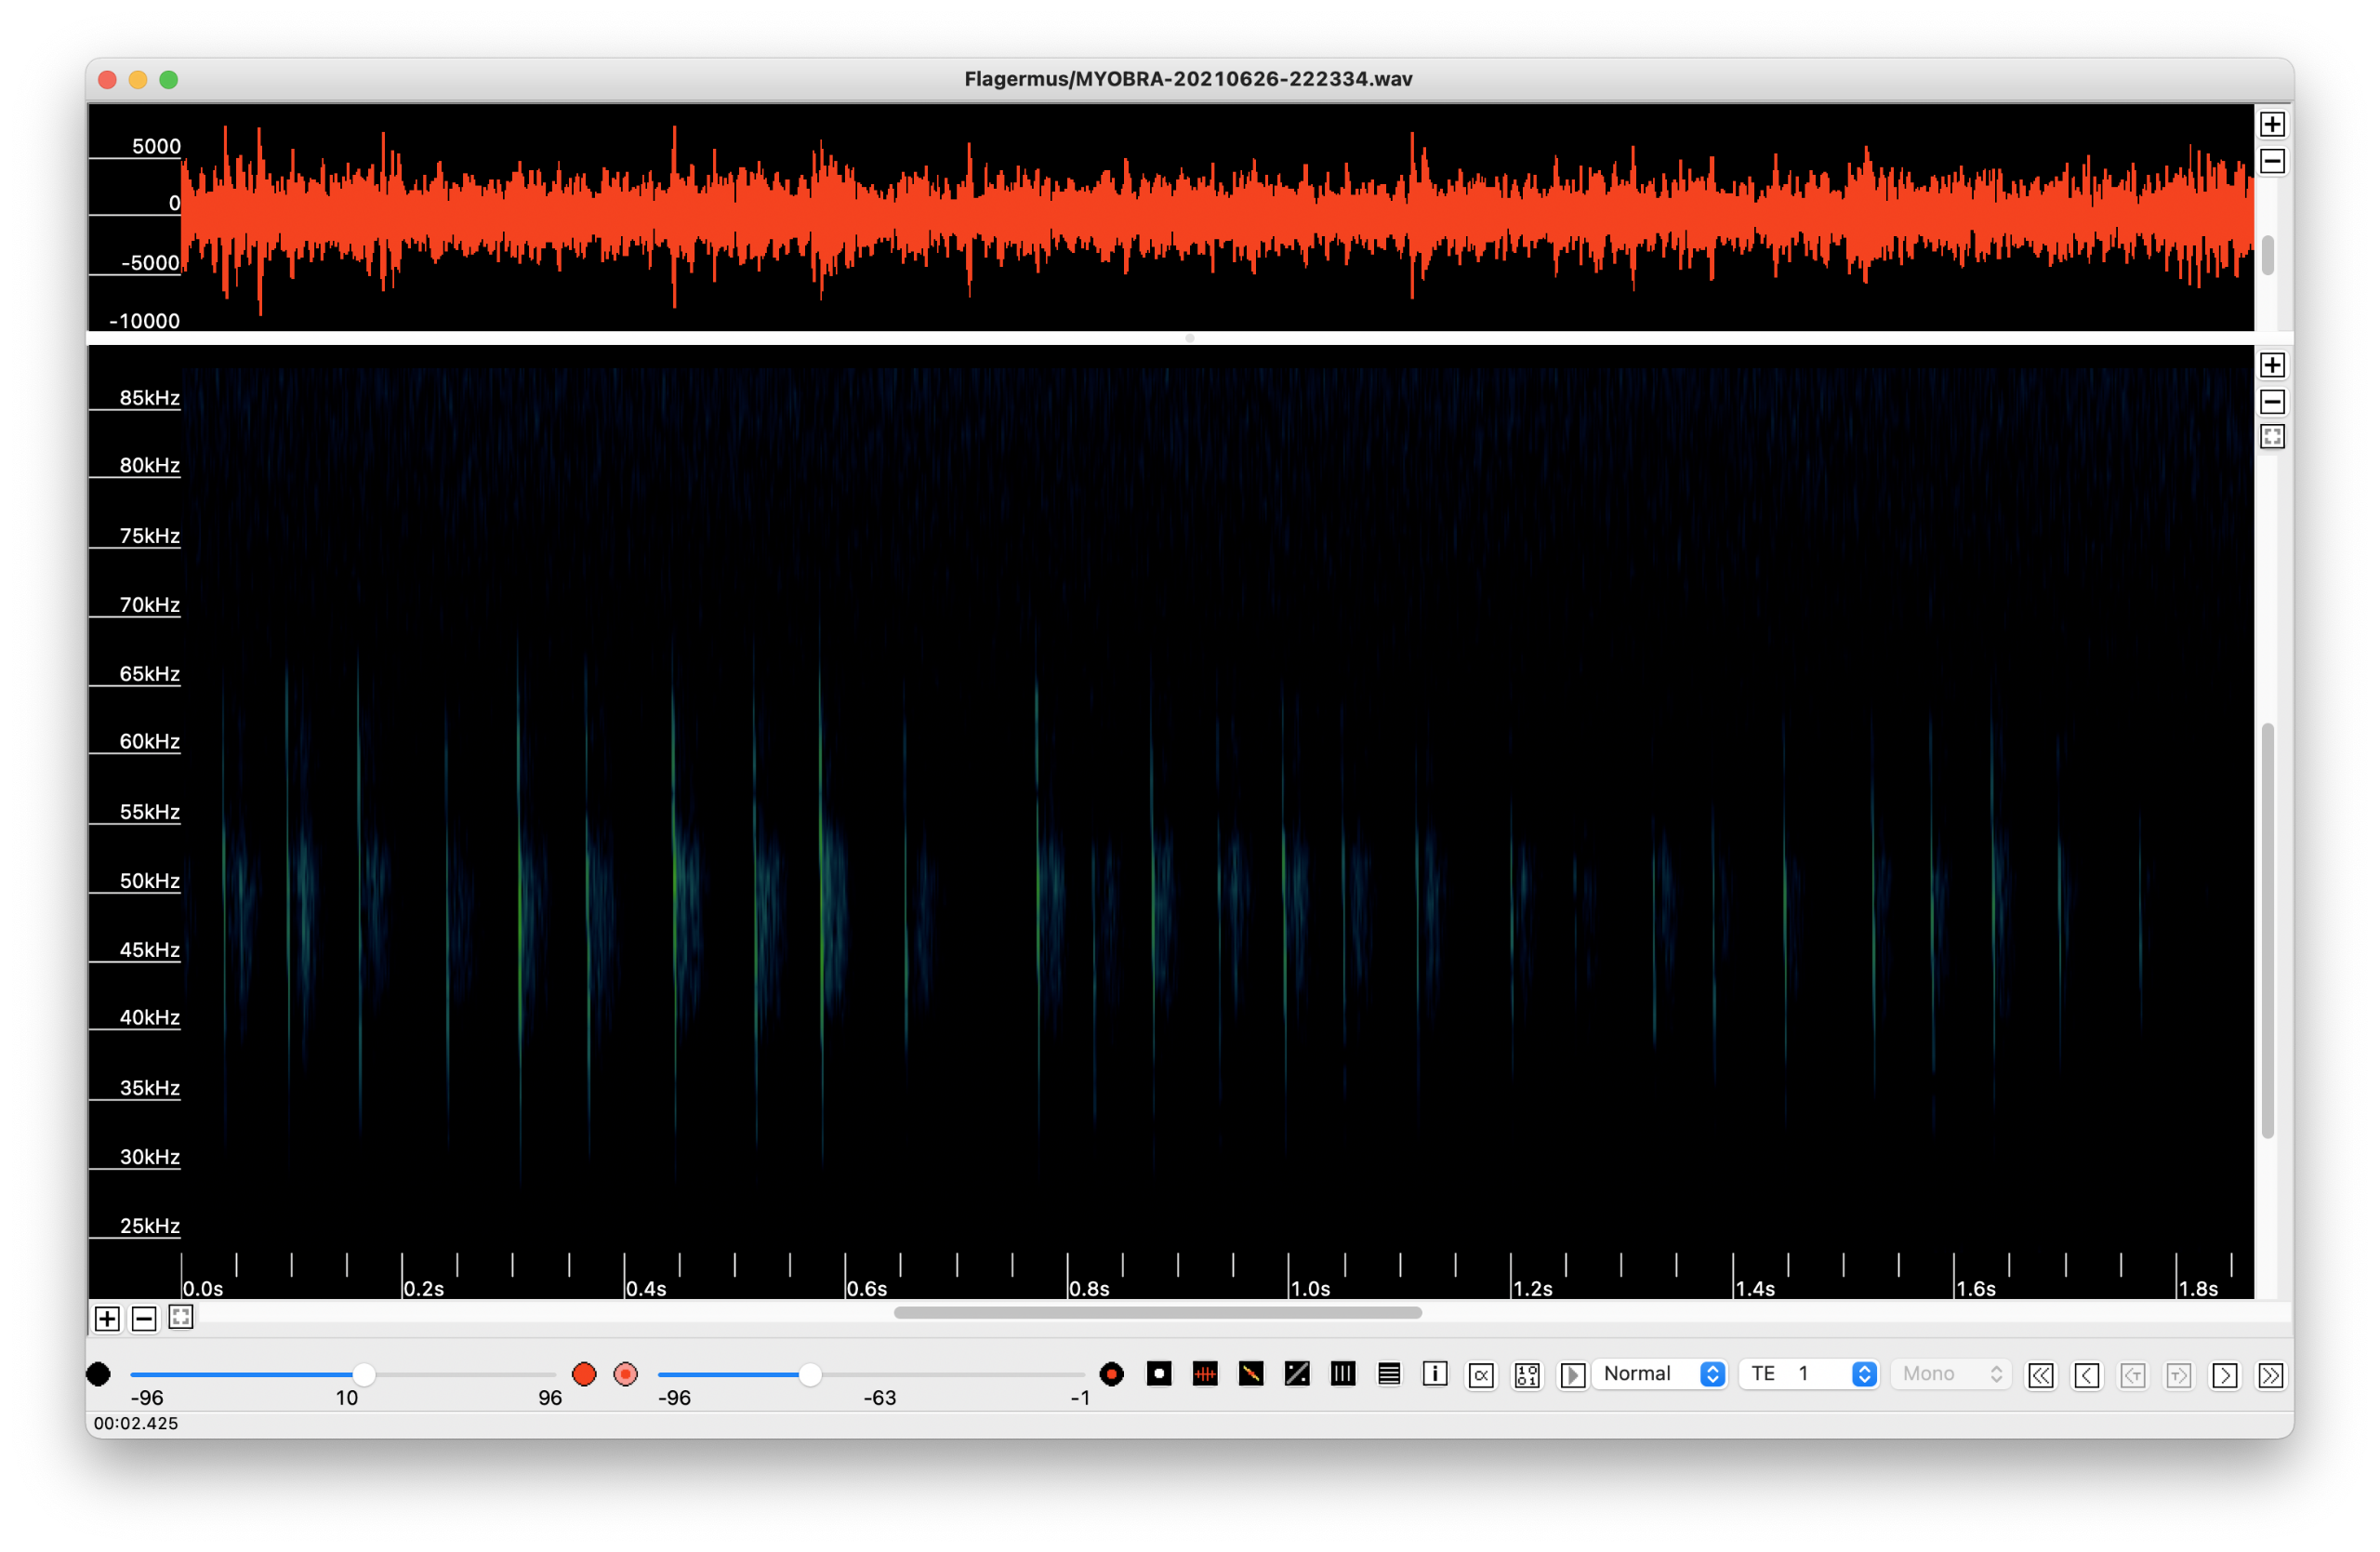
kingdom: Animalia
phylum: Chordata
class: Mammalia
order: Chiroptera
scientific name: Chiroptera
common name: Flagermus
